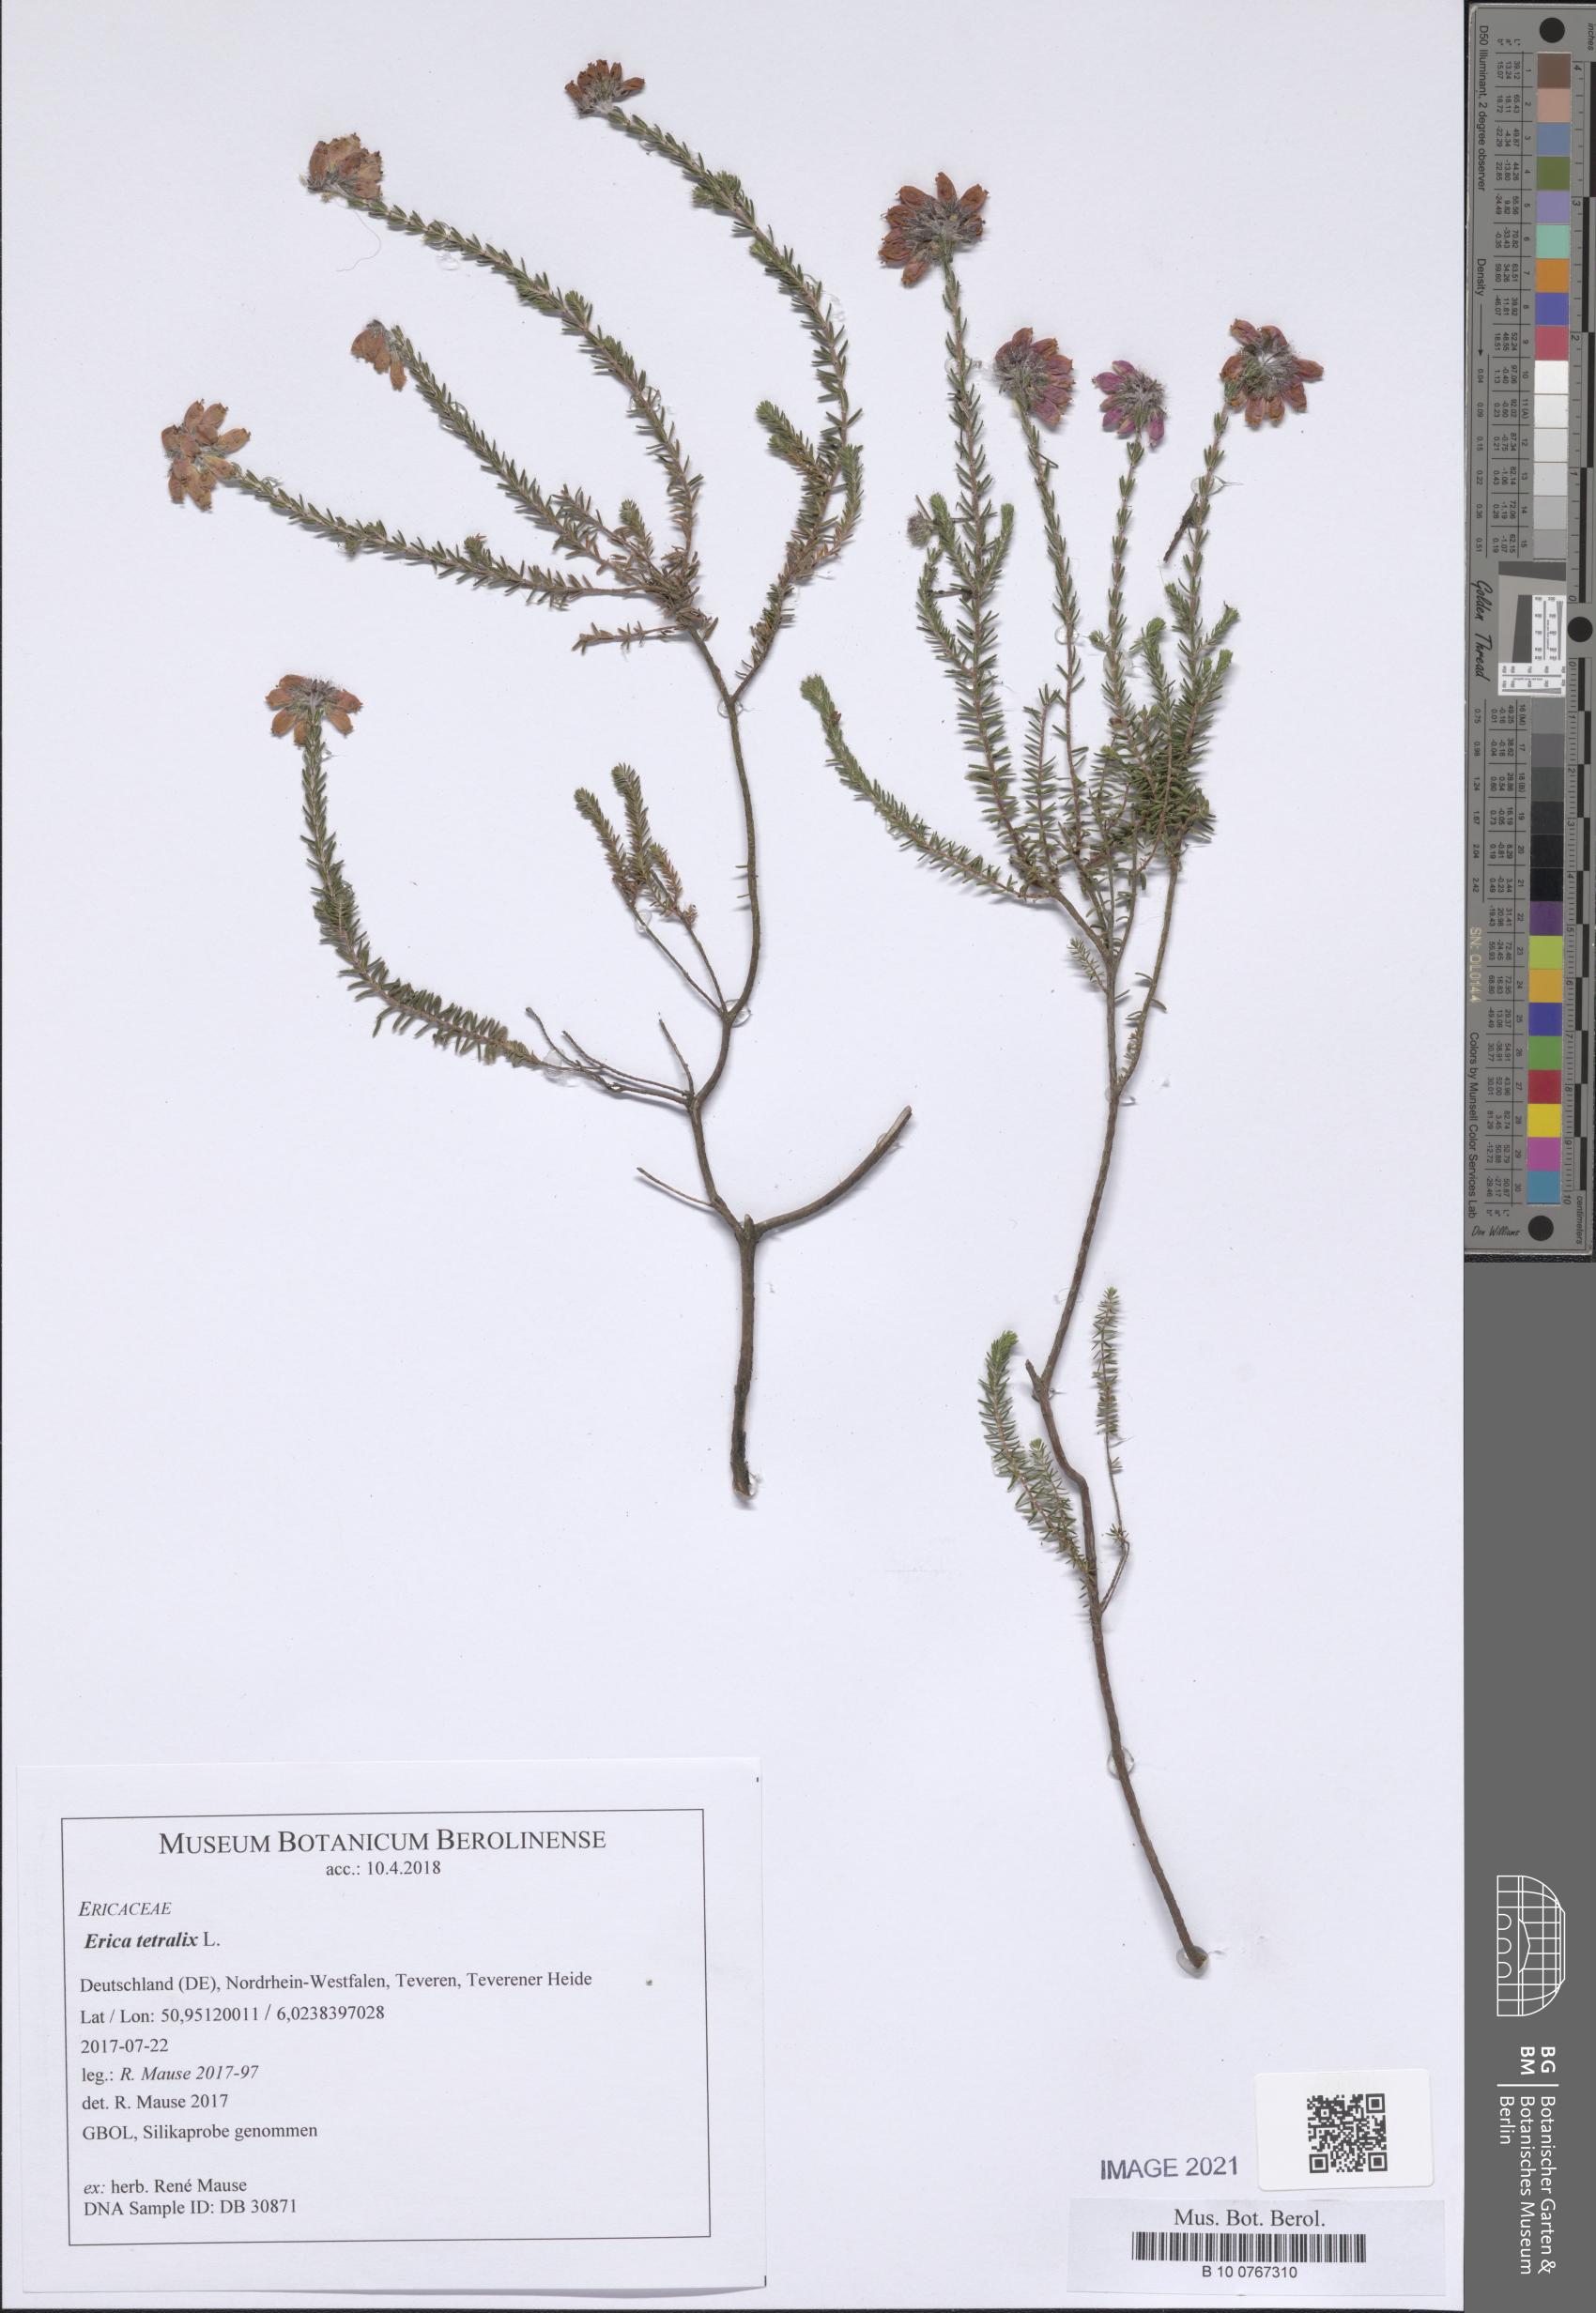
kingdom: Plantae
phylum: Tracheophyta
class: Magnoliopsida
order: Ericales
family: Ericaceae
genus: Erica
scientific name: Erica tetralix
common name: Cross-leaved heath
